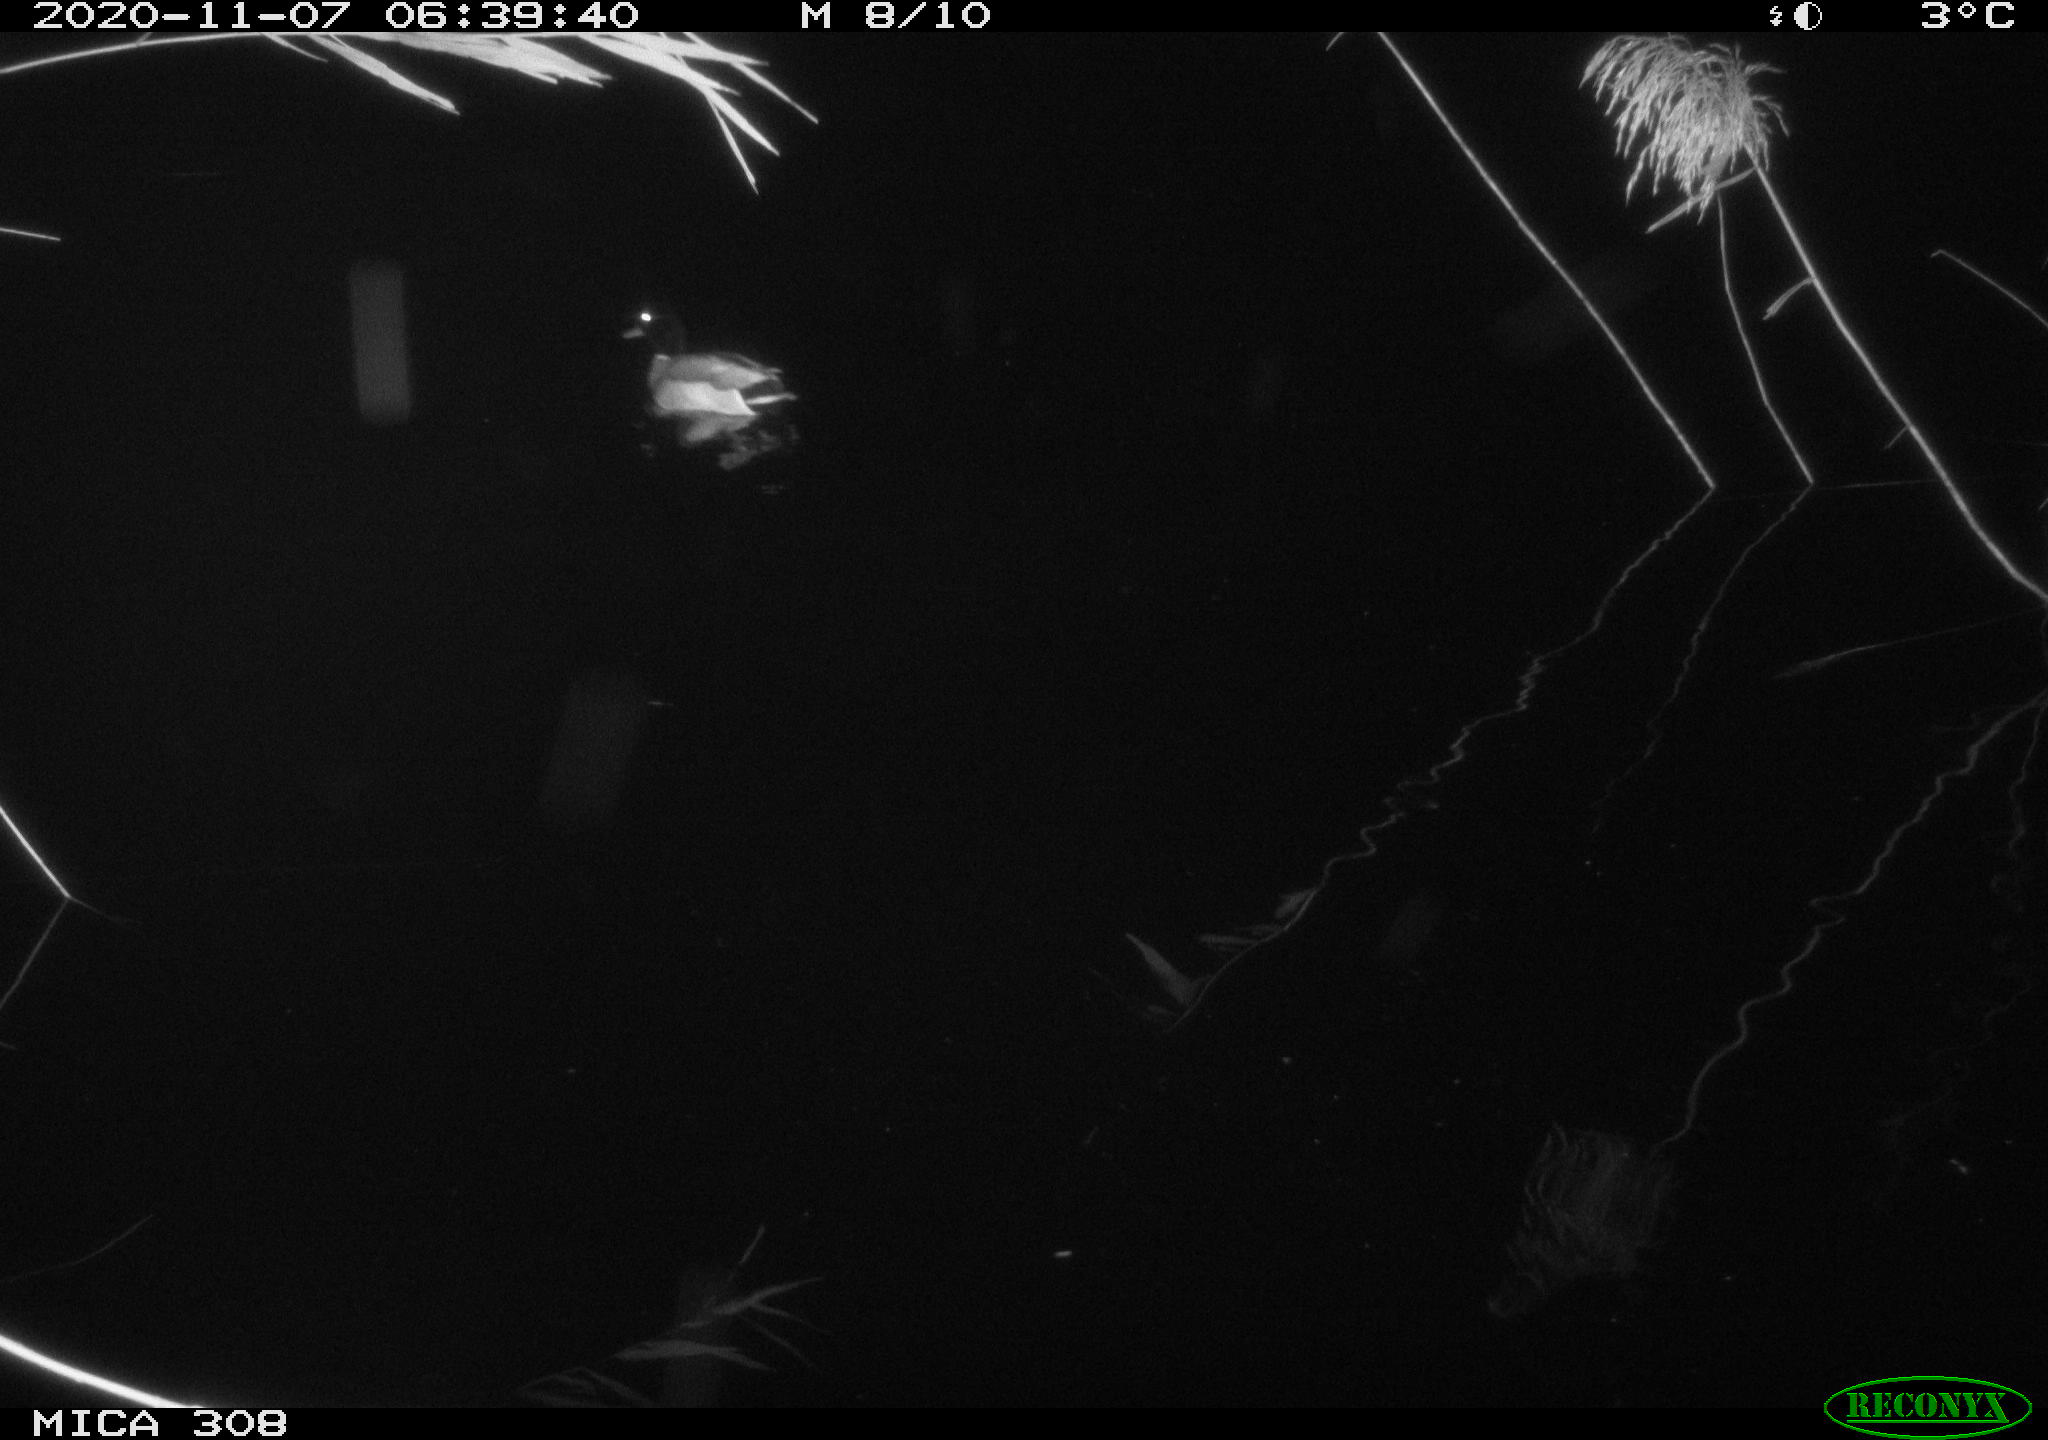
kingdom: Animalia
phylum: Chordata
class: Aves
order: Anseriformes
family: Anatidae
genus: Anas
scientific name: Anas platyrhynchos
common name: Mallard
